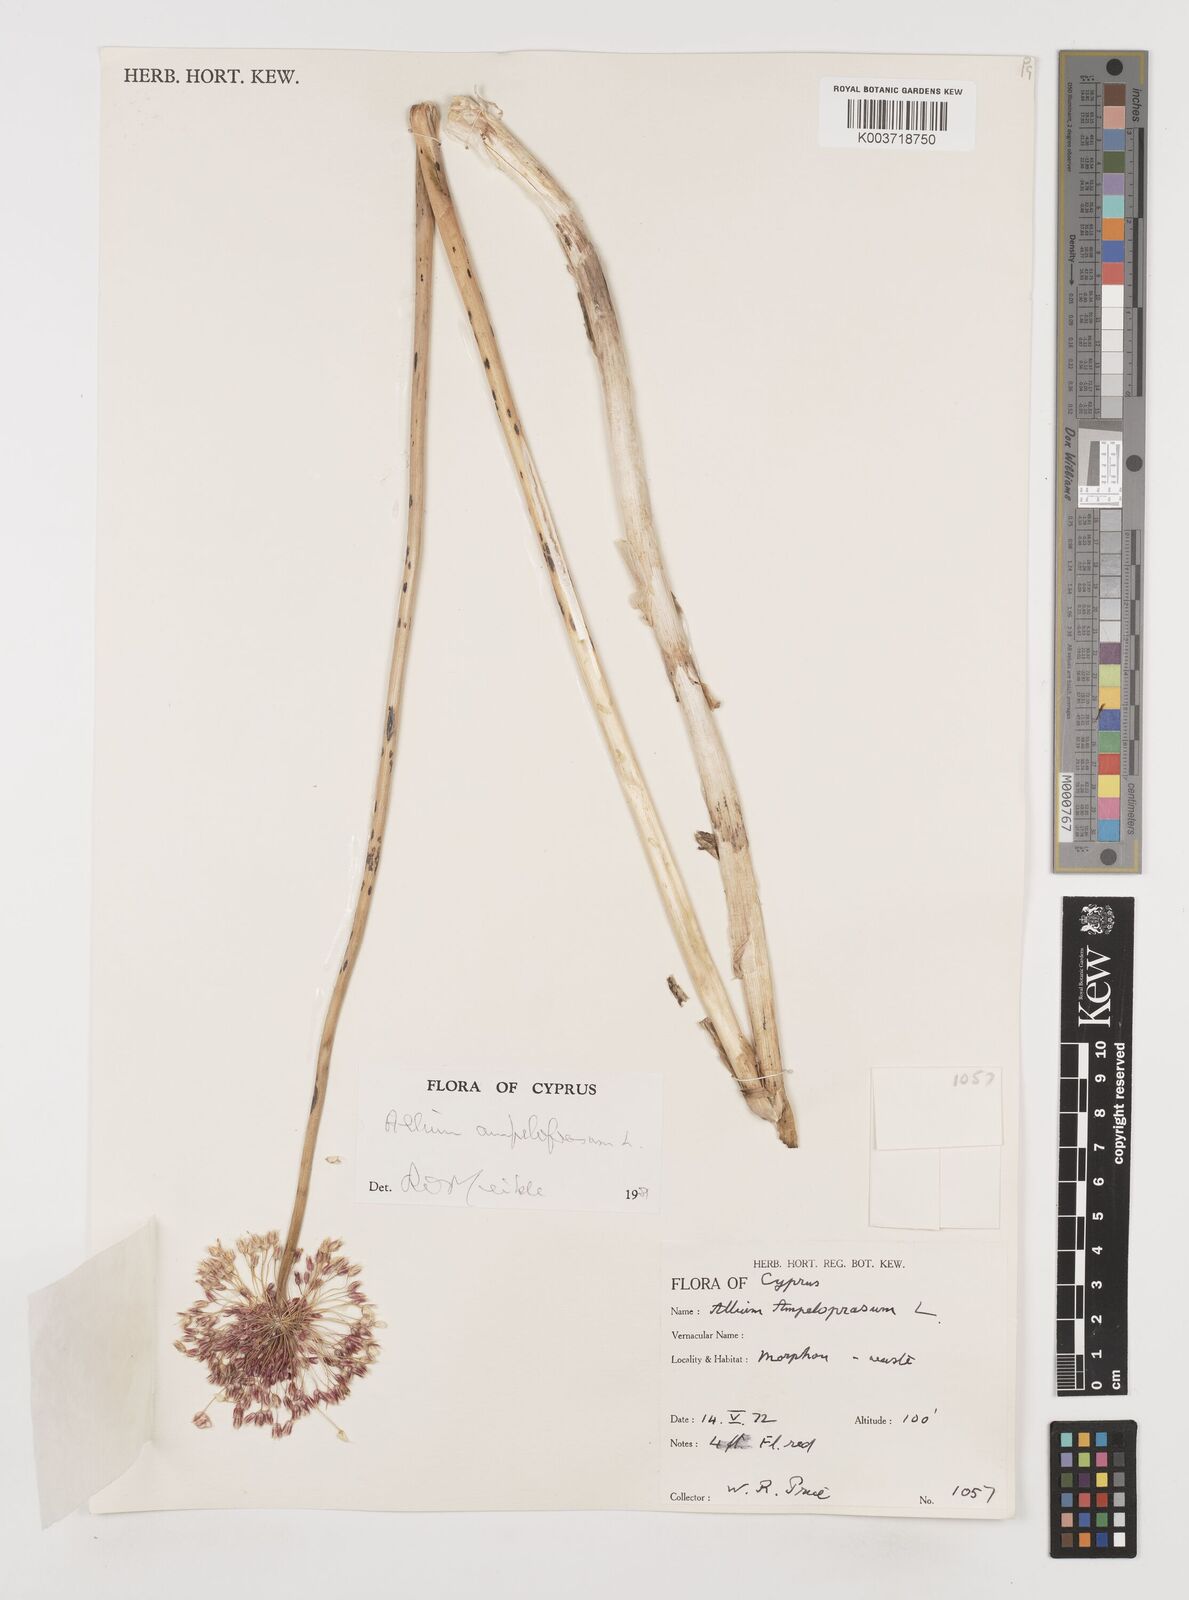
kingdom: Plantae
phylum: Tracheophyta
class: Liliopsida
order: Asparagales
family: Amaryllidaceae
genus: Allium
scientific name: Allium rotundum
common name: Sand leek
